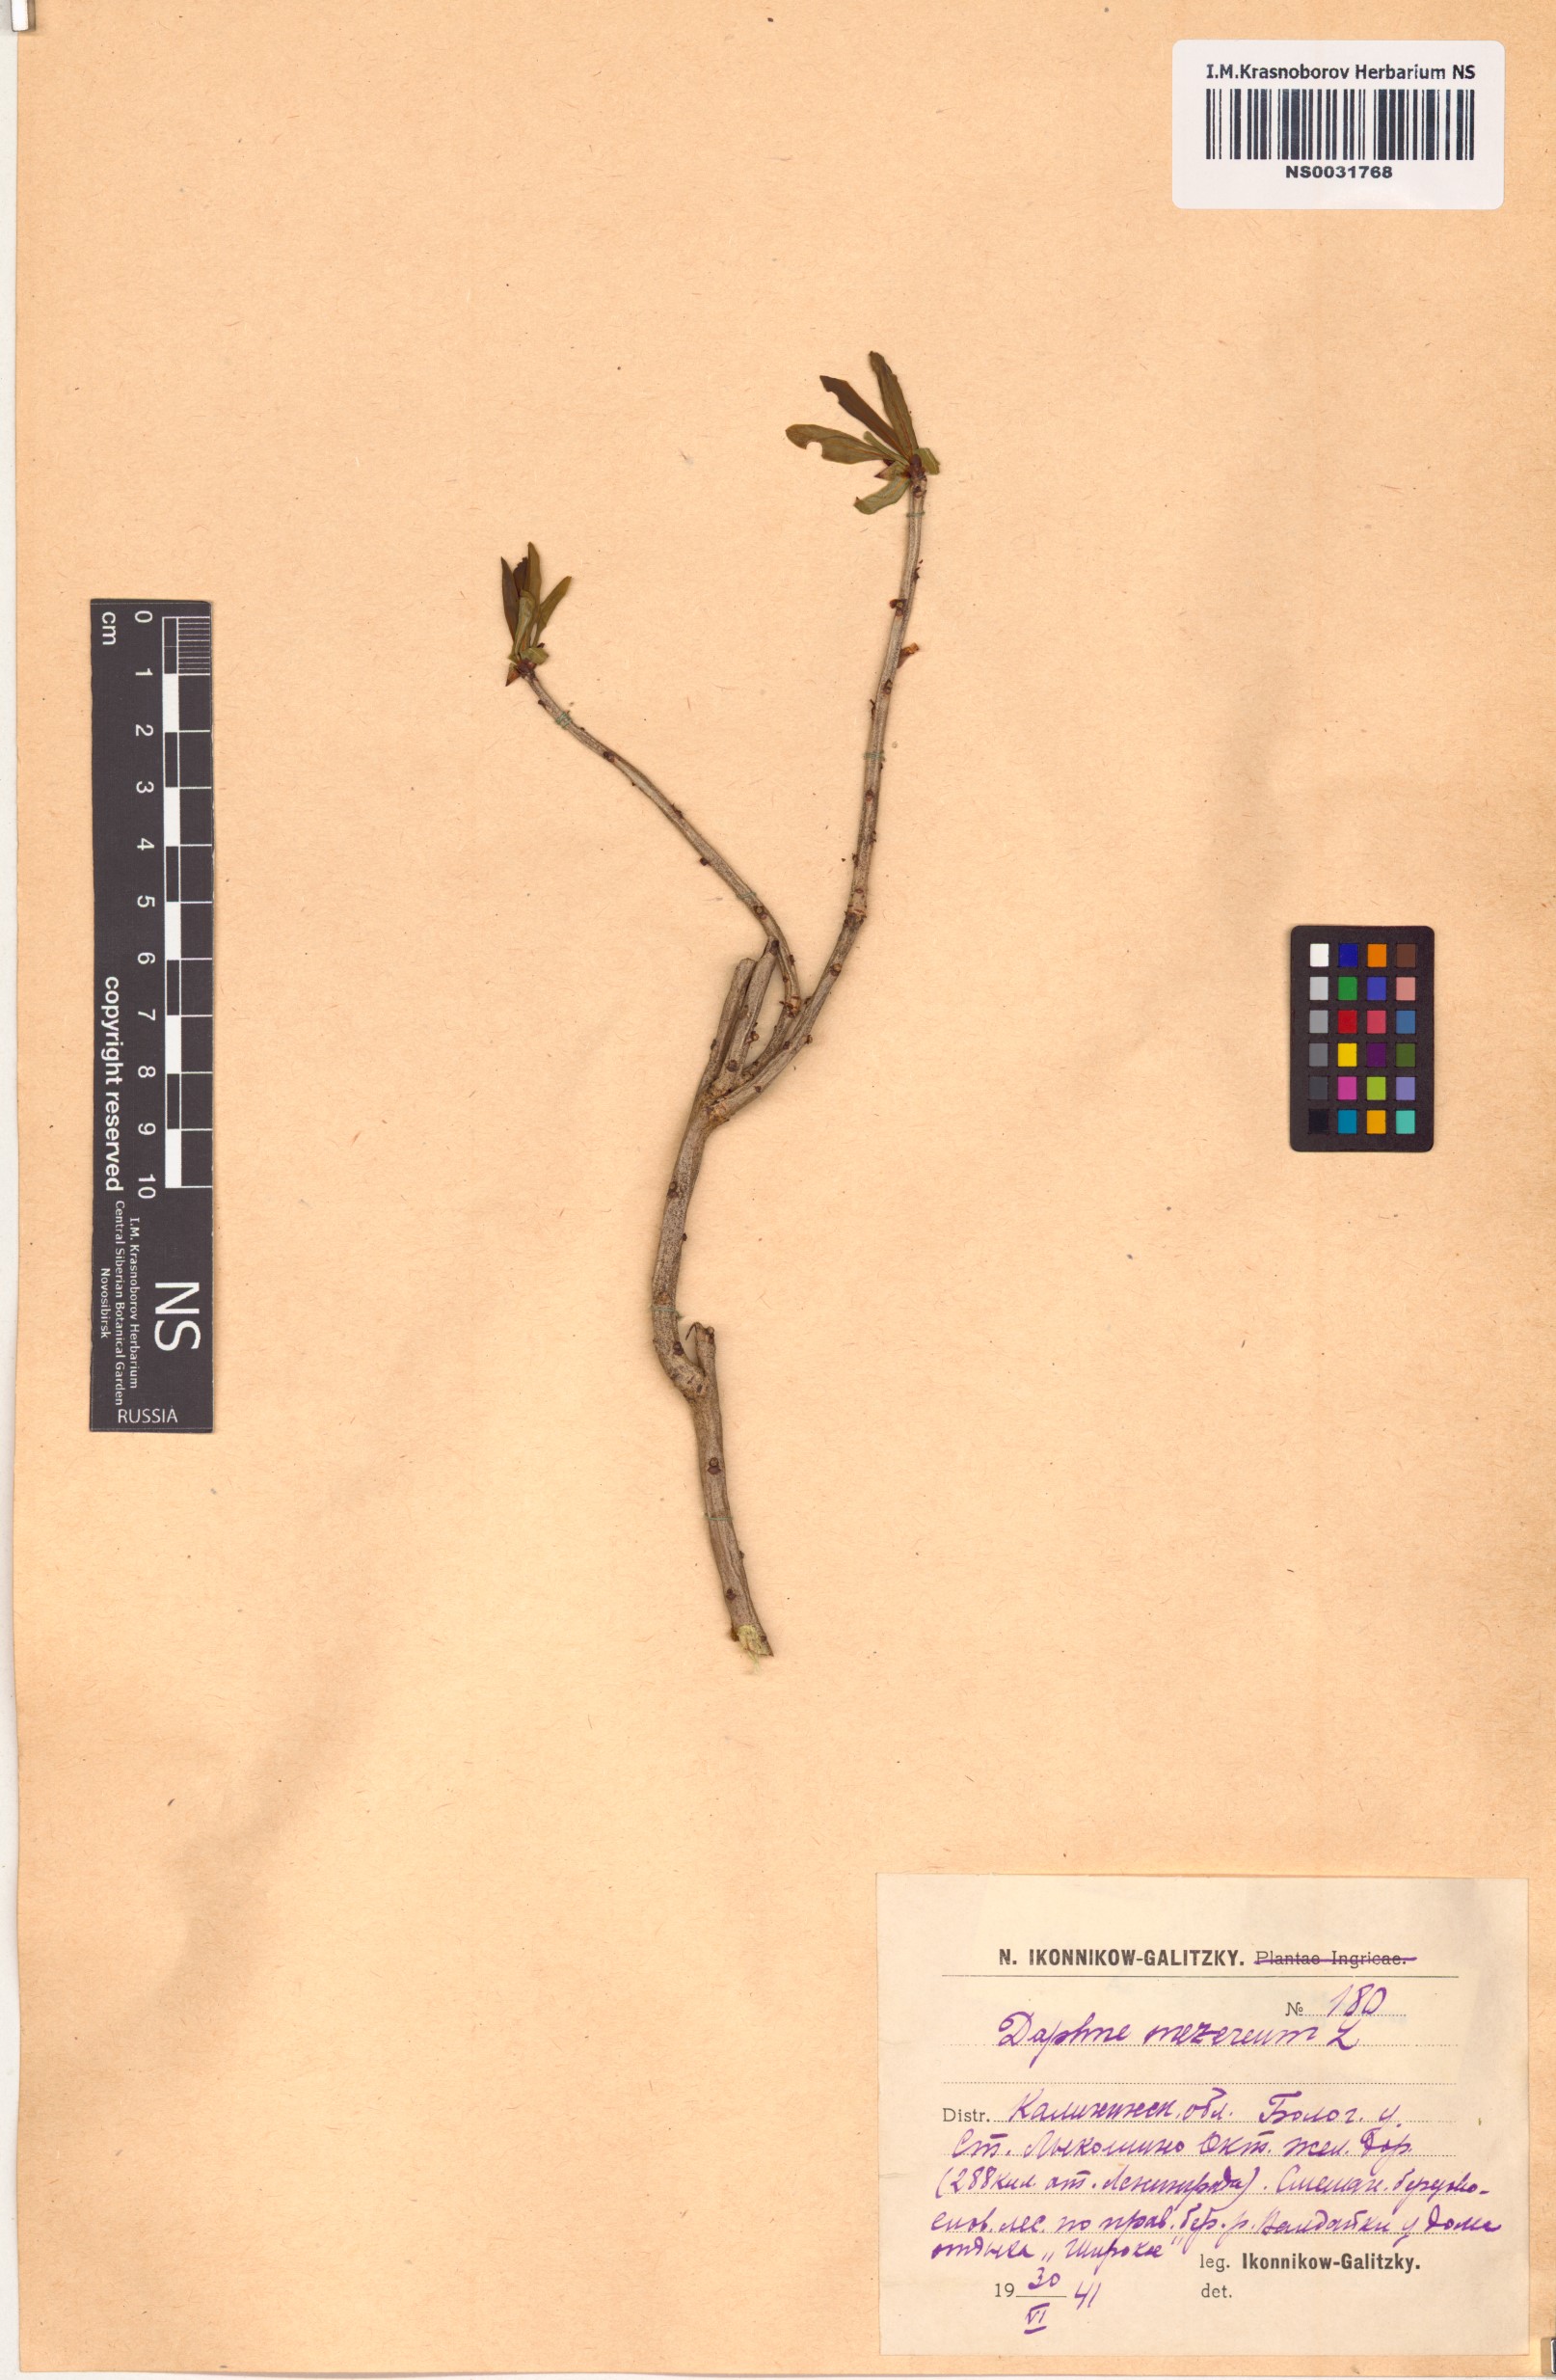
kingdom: Plantae
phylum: Tracheophyta
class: Magnoliopsida
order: Malvales
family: Thymelaeaceae
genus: Daphne
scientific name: Daphne mezereum
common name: Mezereon
